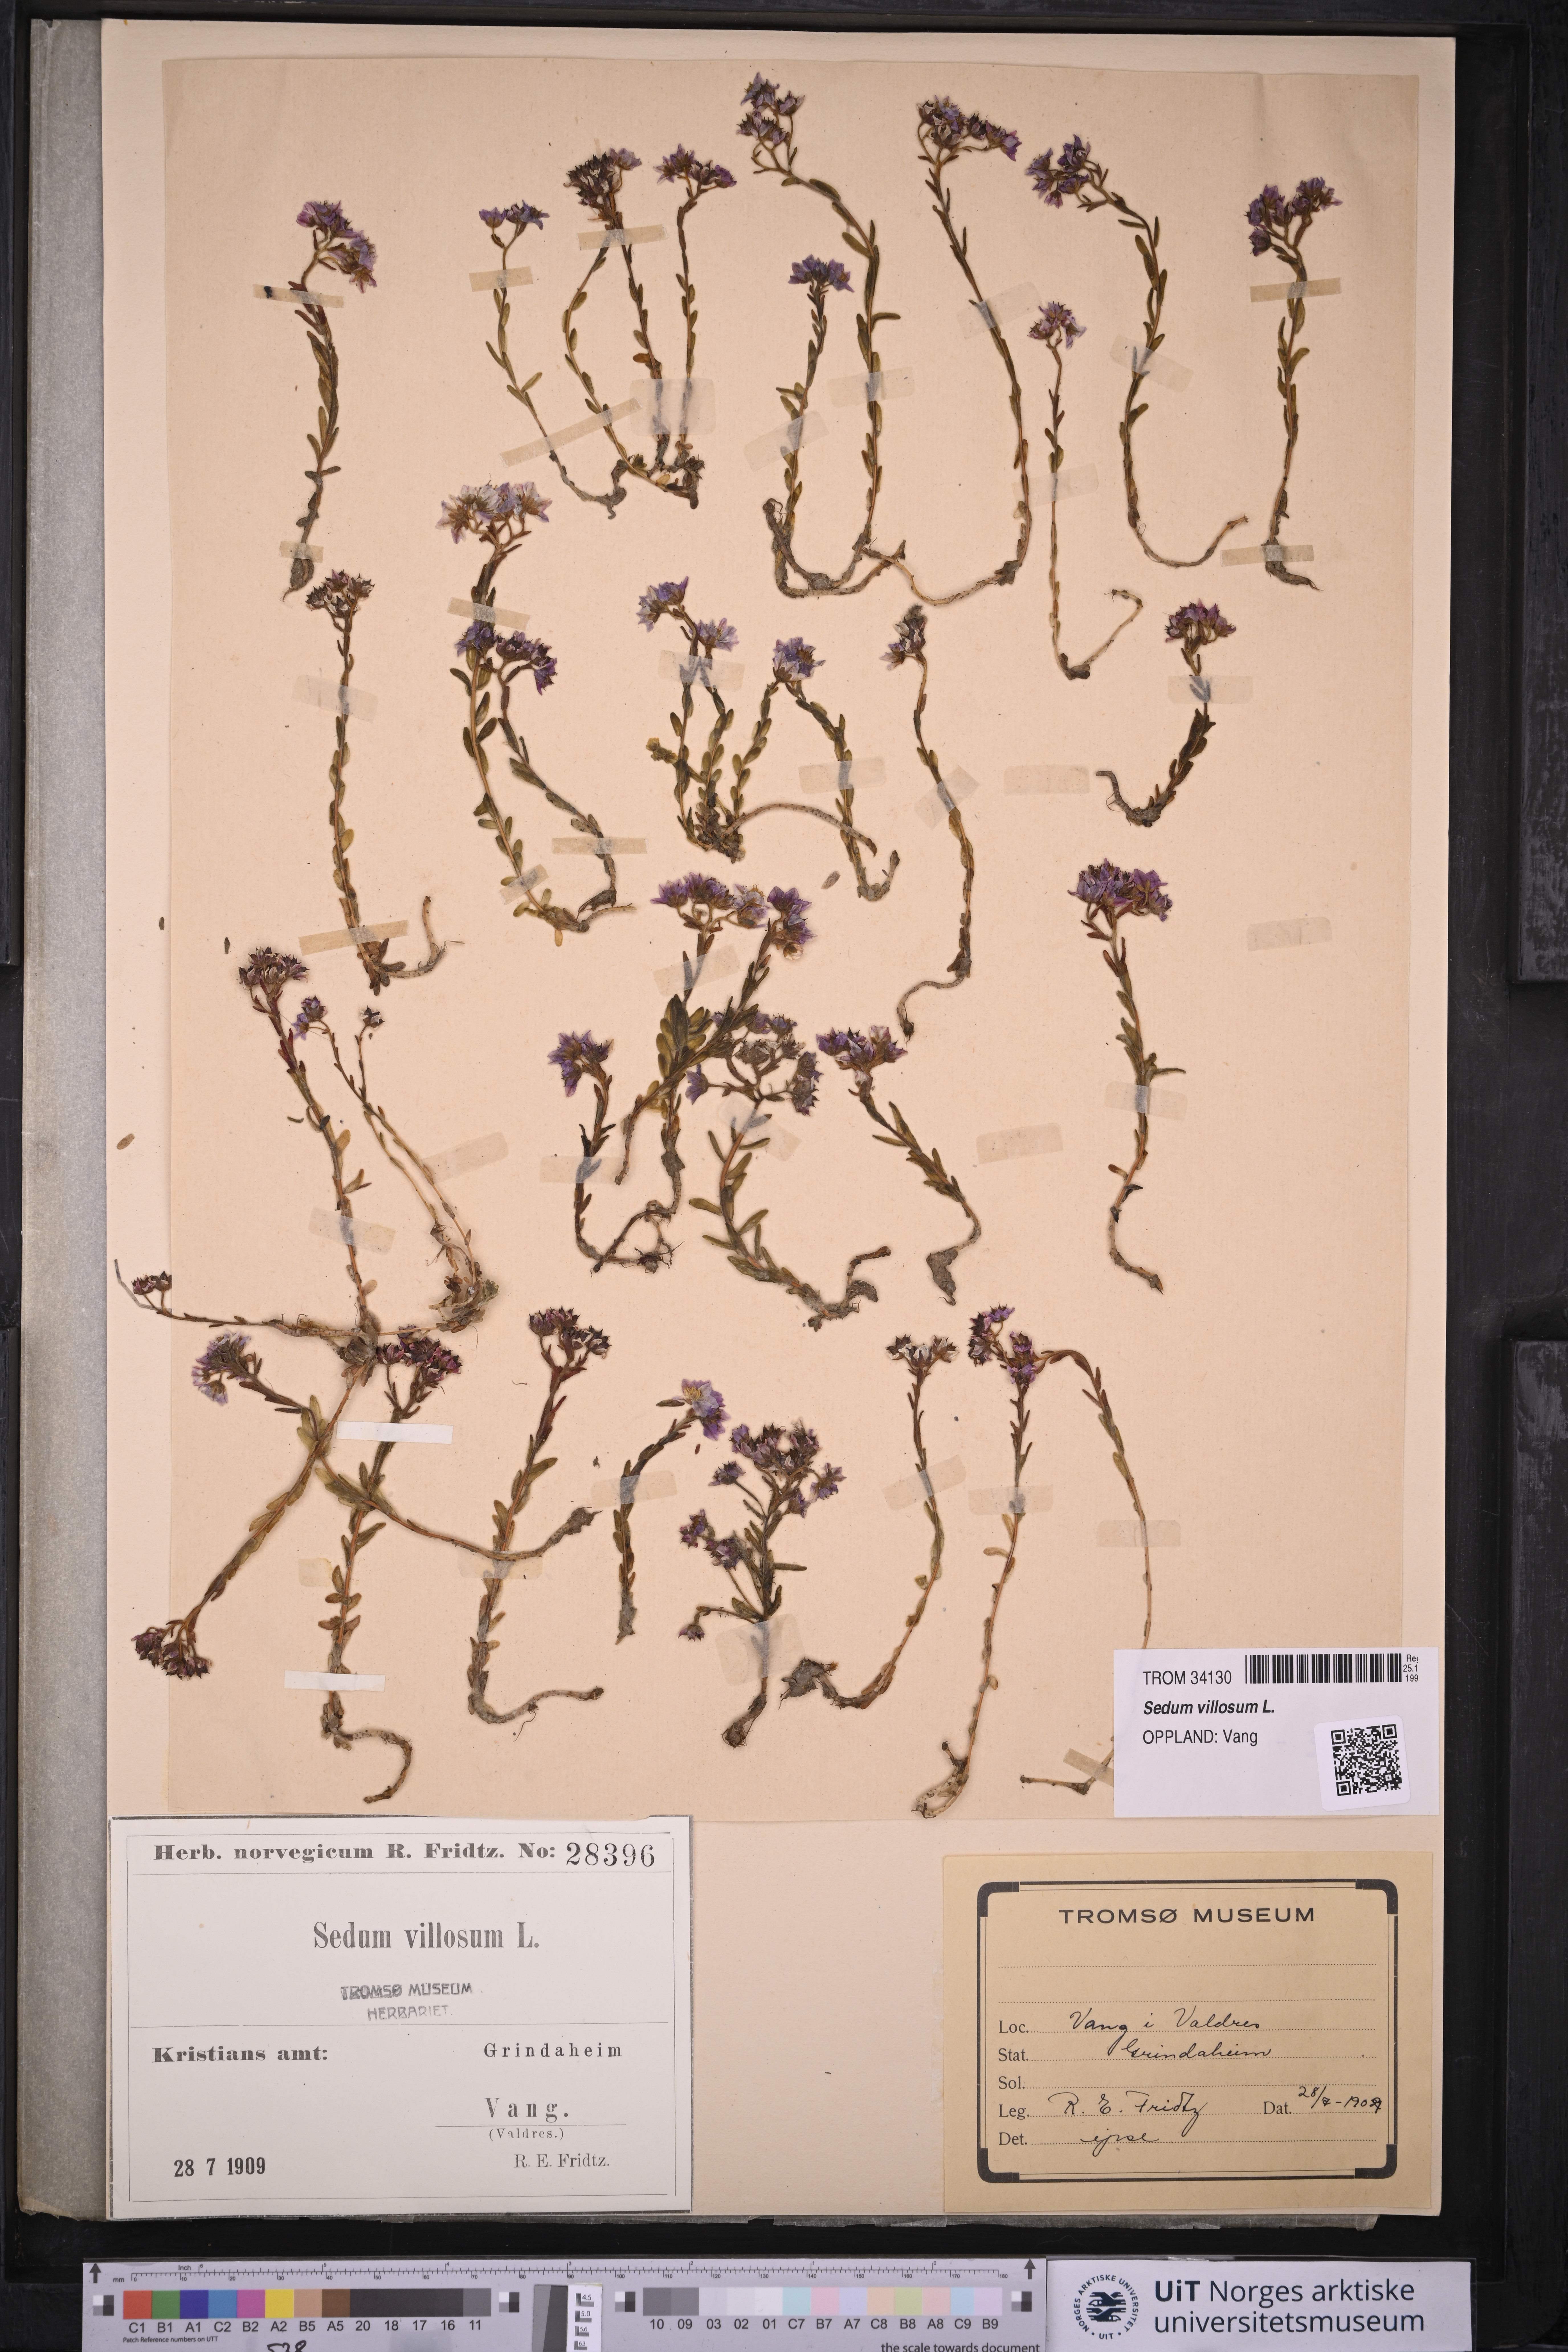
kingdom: Plantae
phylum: Tracheophyta
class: Magnoliopsida
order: Saxifragales
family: Crassulaceae
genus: Sedum
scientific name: Sedum villosum
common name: Hairy stonecrop
